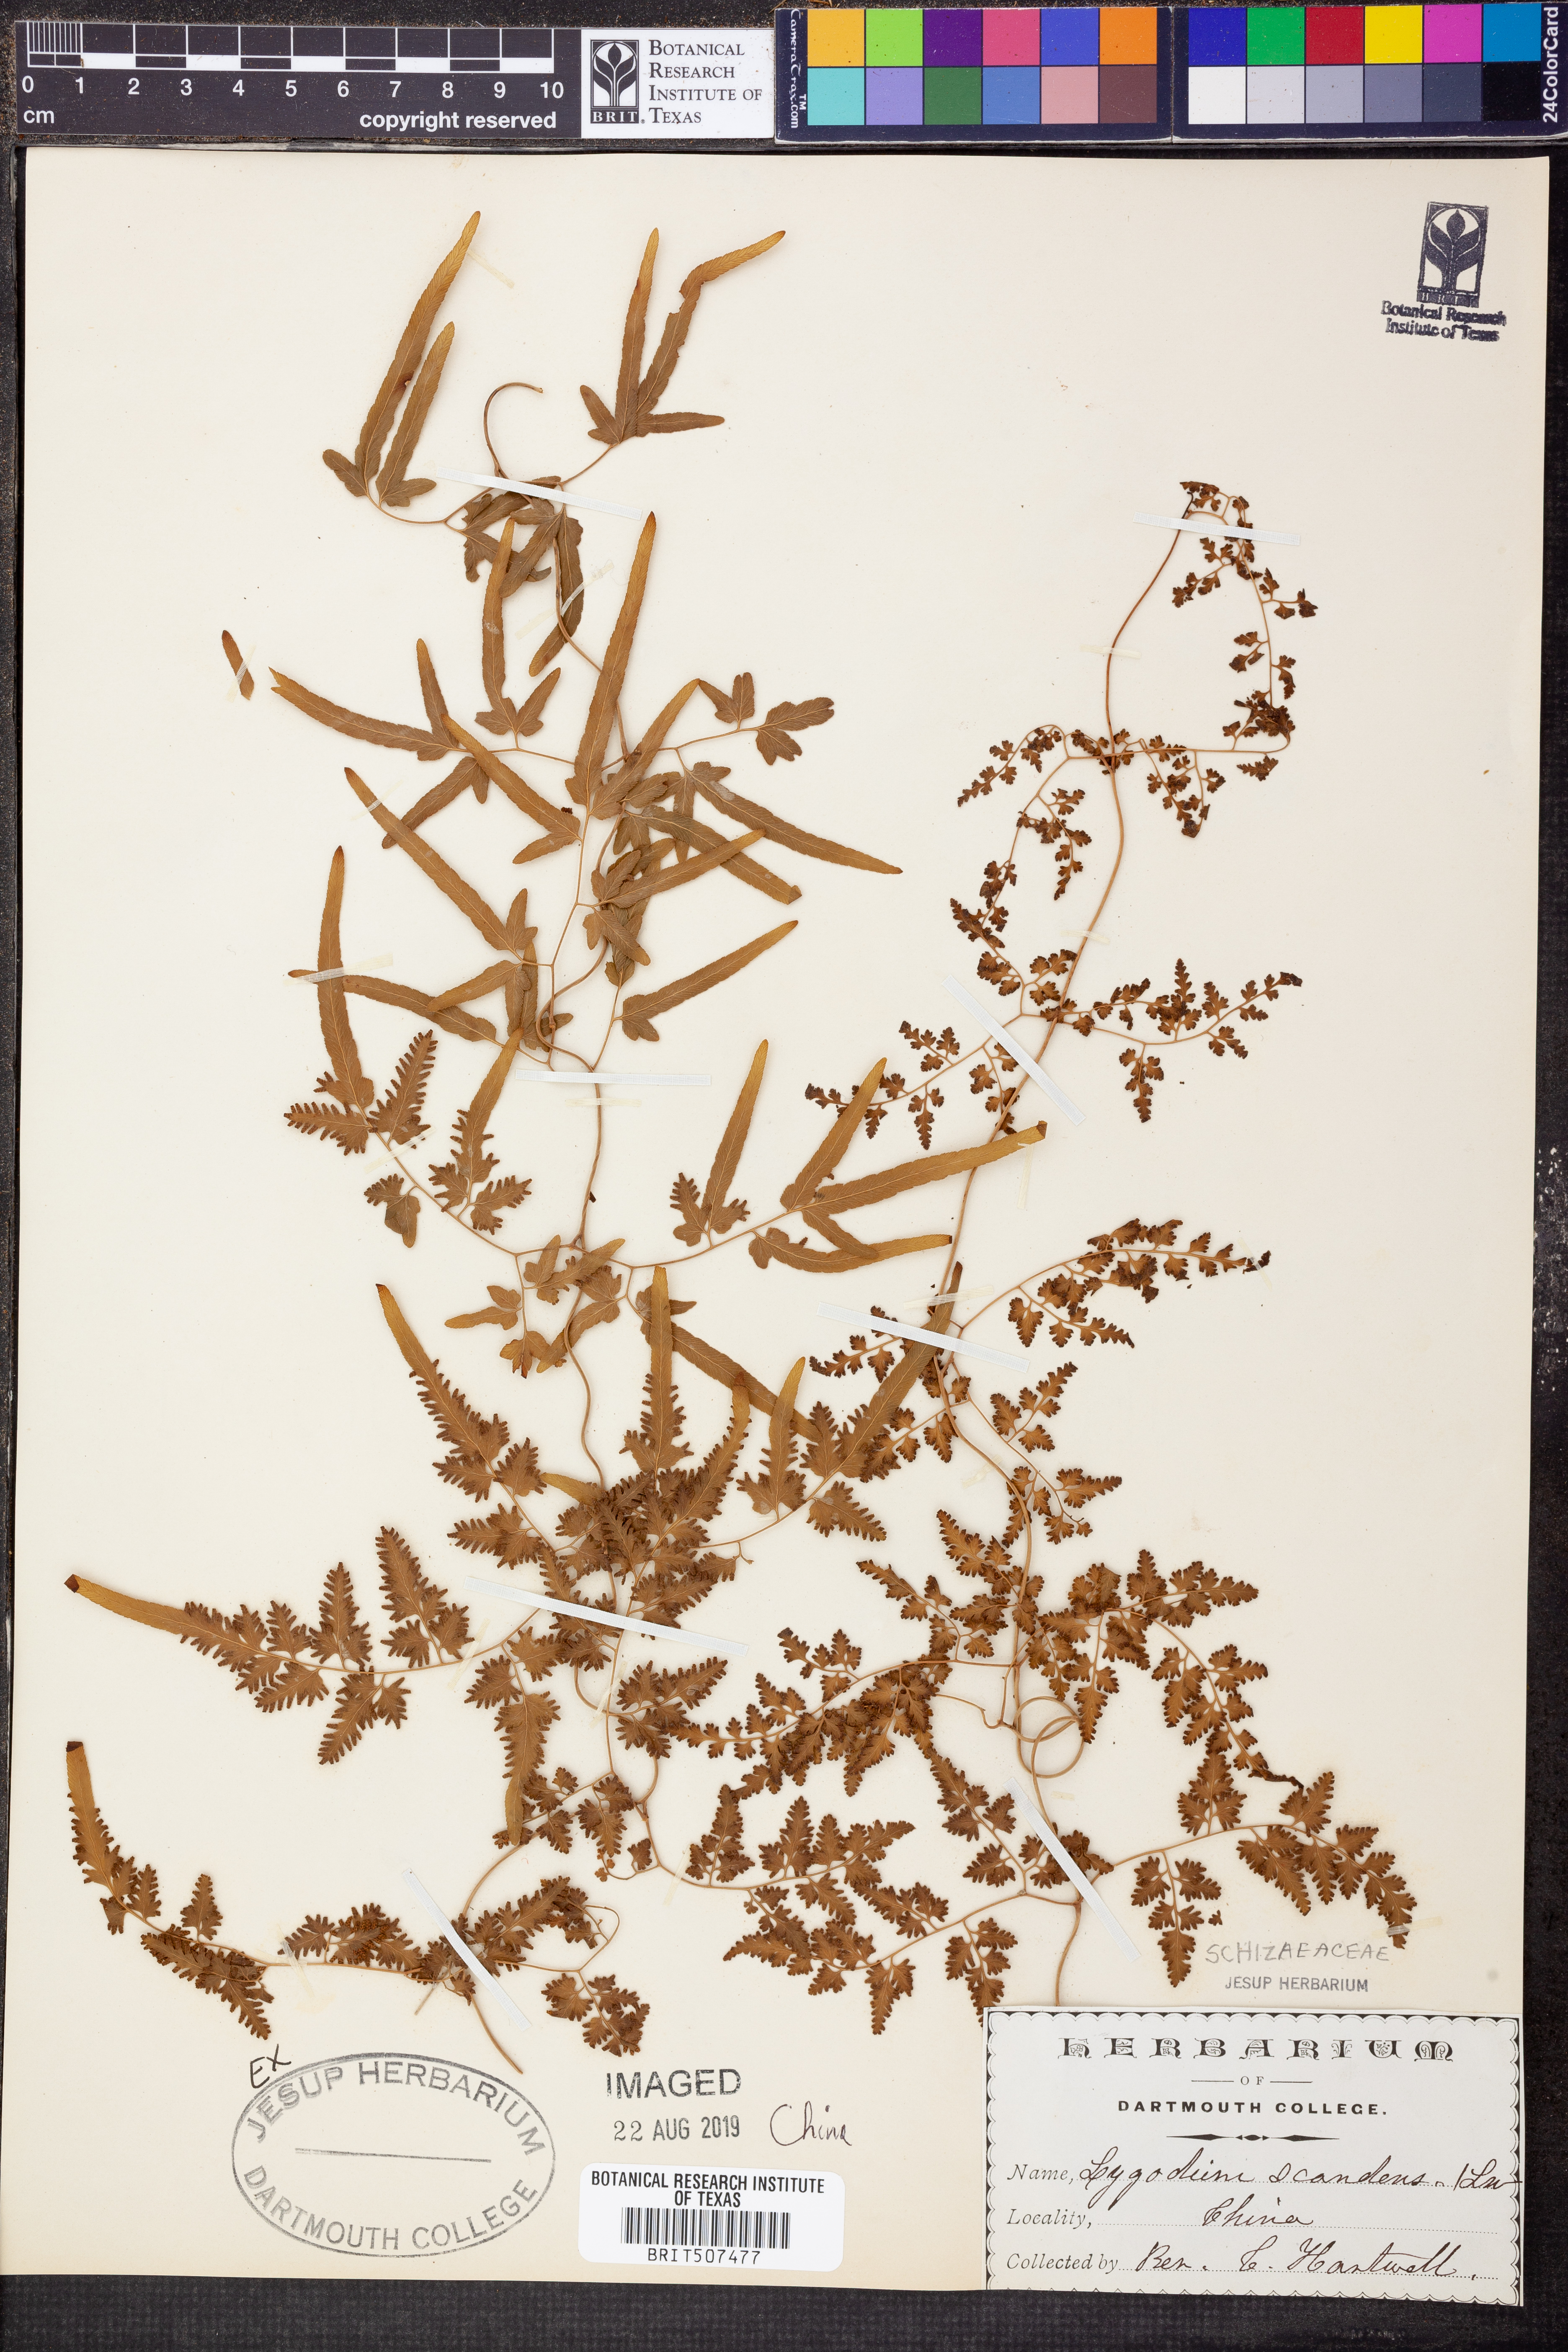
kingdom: Plantae
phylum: Tracheophyta
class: Polypodiopsida
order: Schizaeales
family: Lygodiaceae
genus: Lygodium
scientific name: Lygodium flexuosum
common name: Maidenhair creeper
